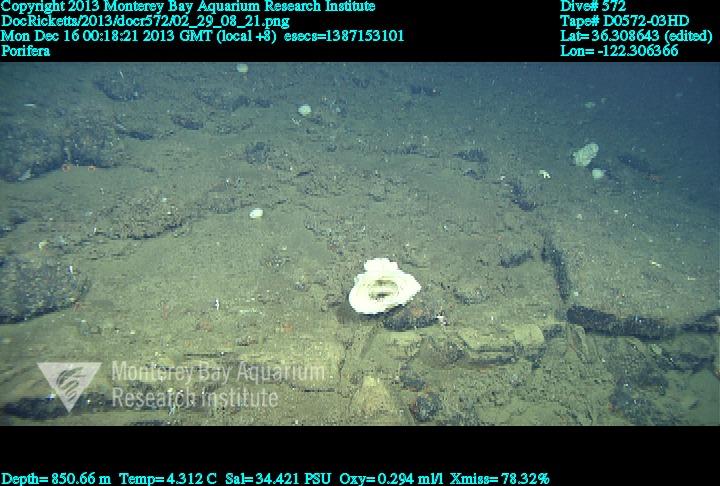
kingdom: Animalia
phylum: Porifera
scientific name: Porifera
